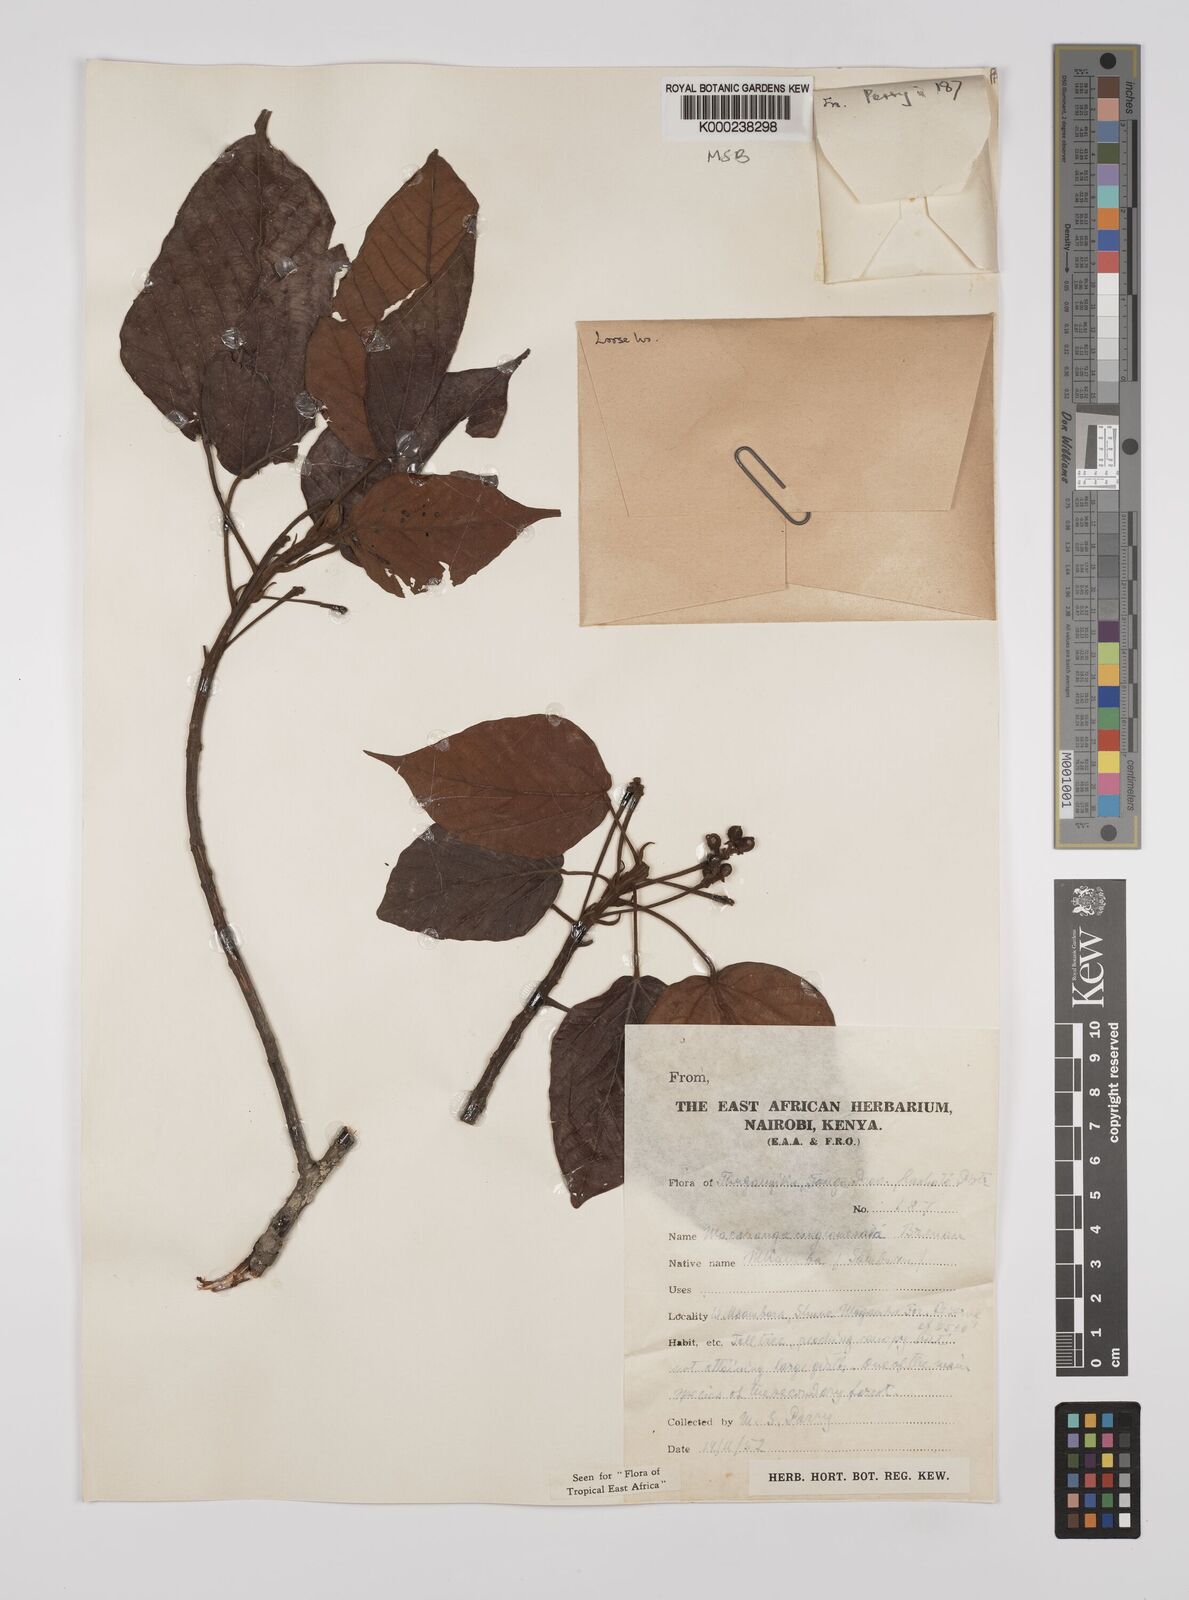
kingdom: Plantae
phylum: Tracheophyta
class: Magnoliopsida
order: Malpighiales
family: Euphorbiaceae
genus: Macaranga
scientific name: Macaranga conglomerata
